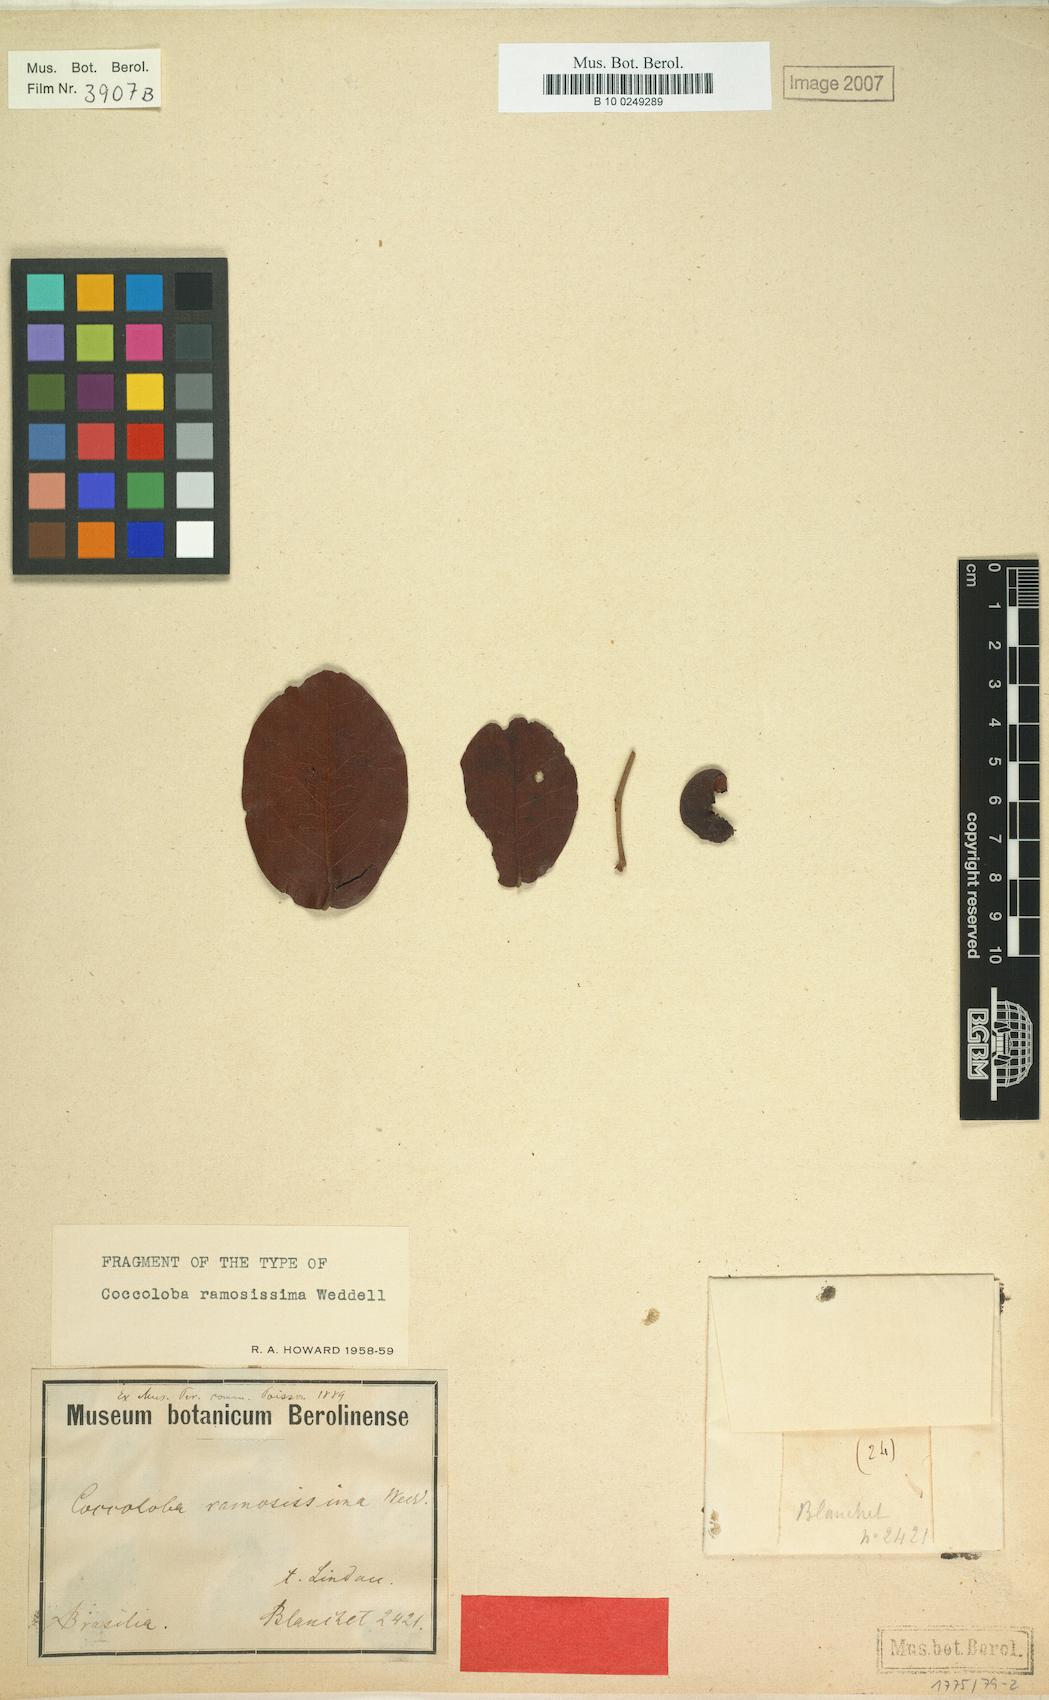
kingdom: Plantae
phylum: Tracheophyta
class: Magnoliopsida
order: Caryophyllales
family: Polygonaceae
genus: Coccoloba
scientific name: Coccoloba ramosisissima
